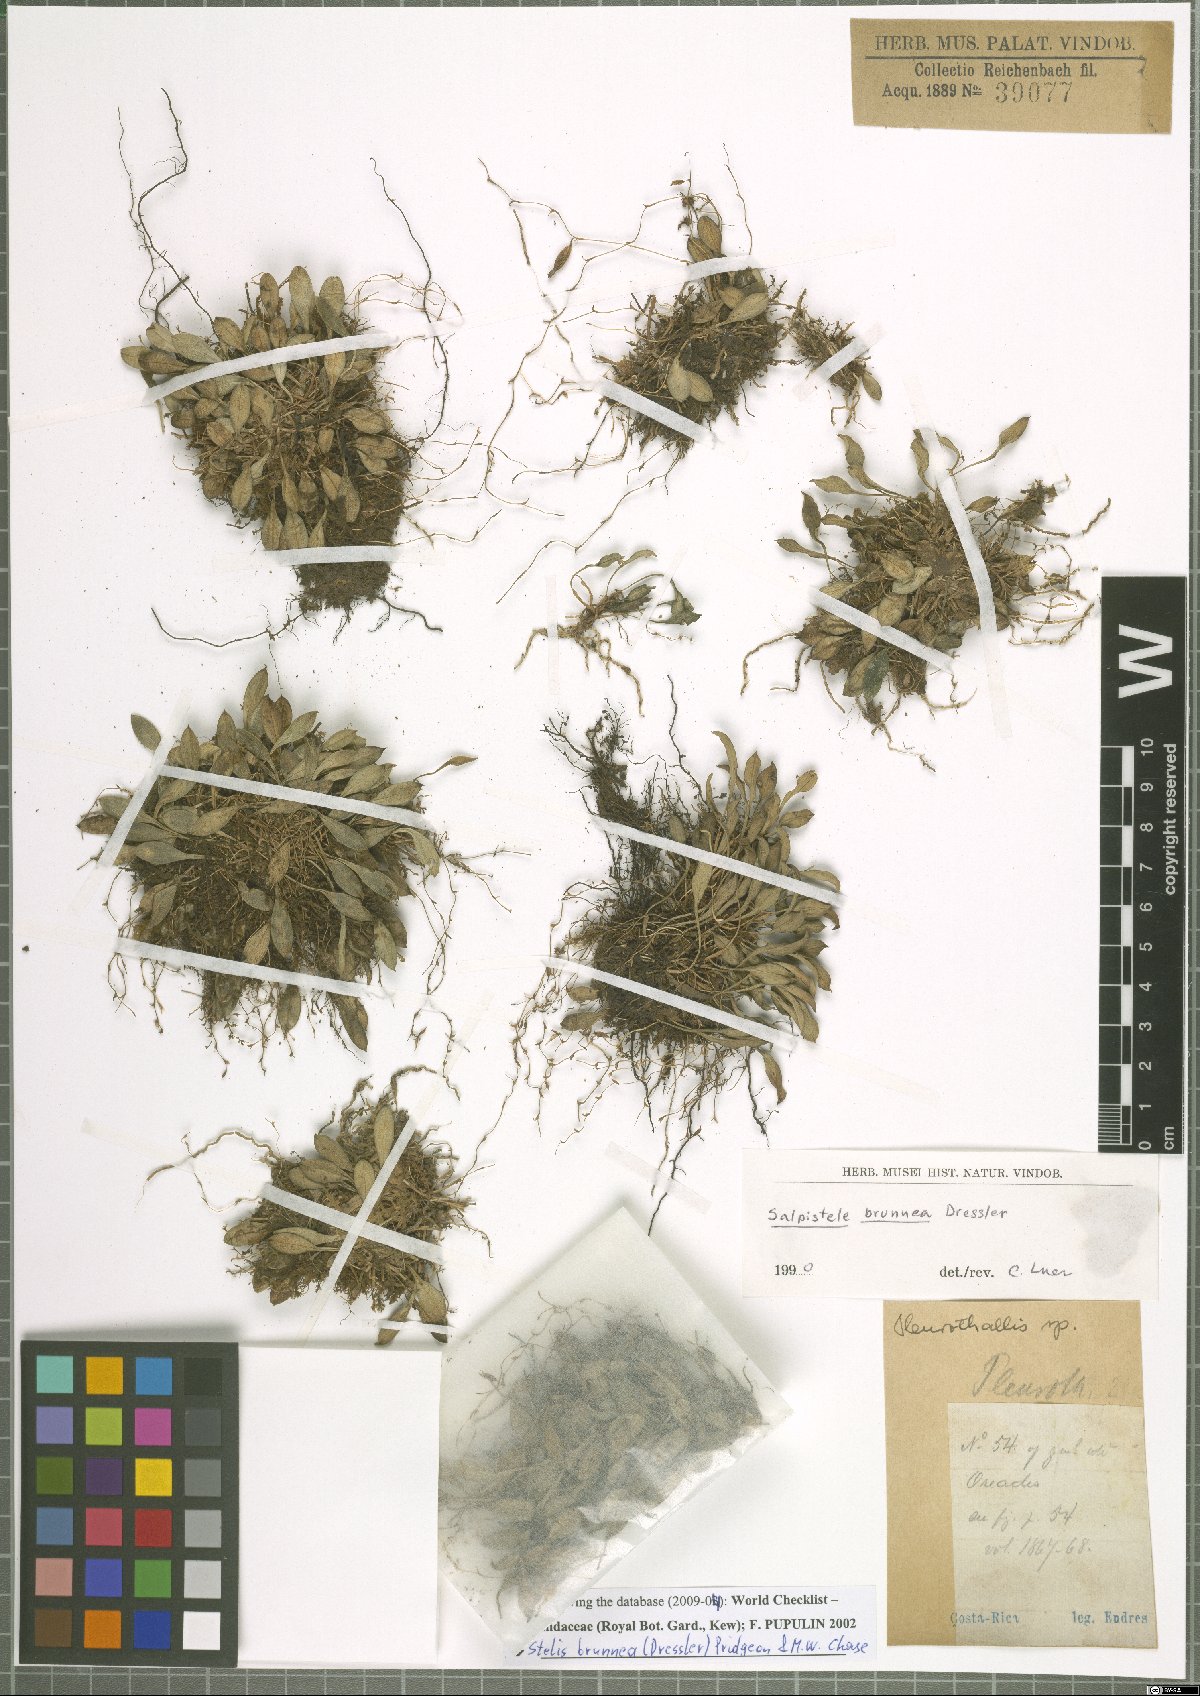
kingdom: Plantae
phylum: Tracheophyta
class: Liliopsida
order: Asparagales
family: Orchidaceae
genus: Stelis
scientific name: Stelis brunnea
